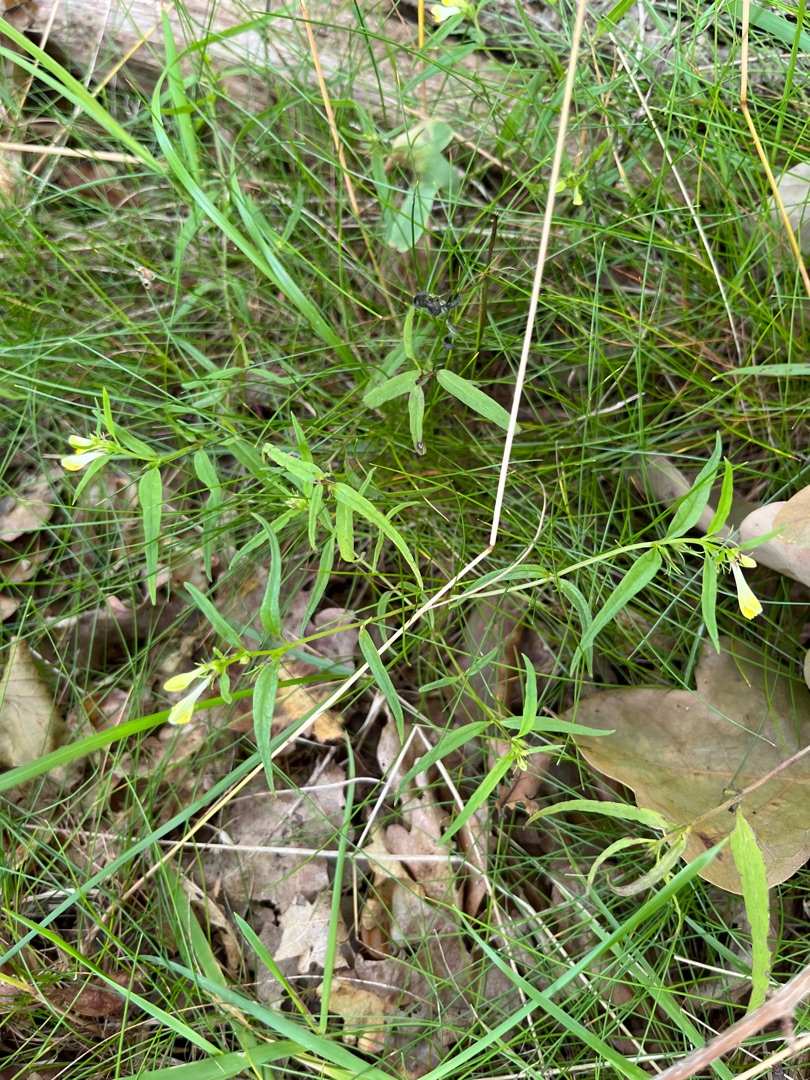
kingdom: Plantae
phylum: Tracheophyta
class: Magnoliopsida
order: Lamiales
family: Orobanchaceae
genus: Melampyrum
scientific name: Melampyrum pratense
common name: Almindelig kohvede
